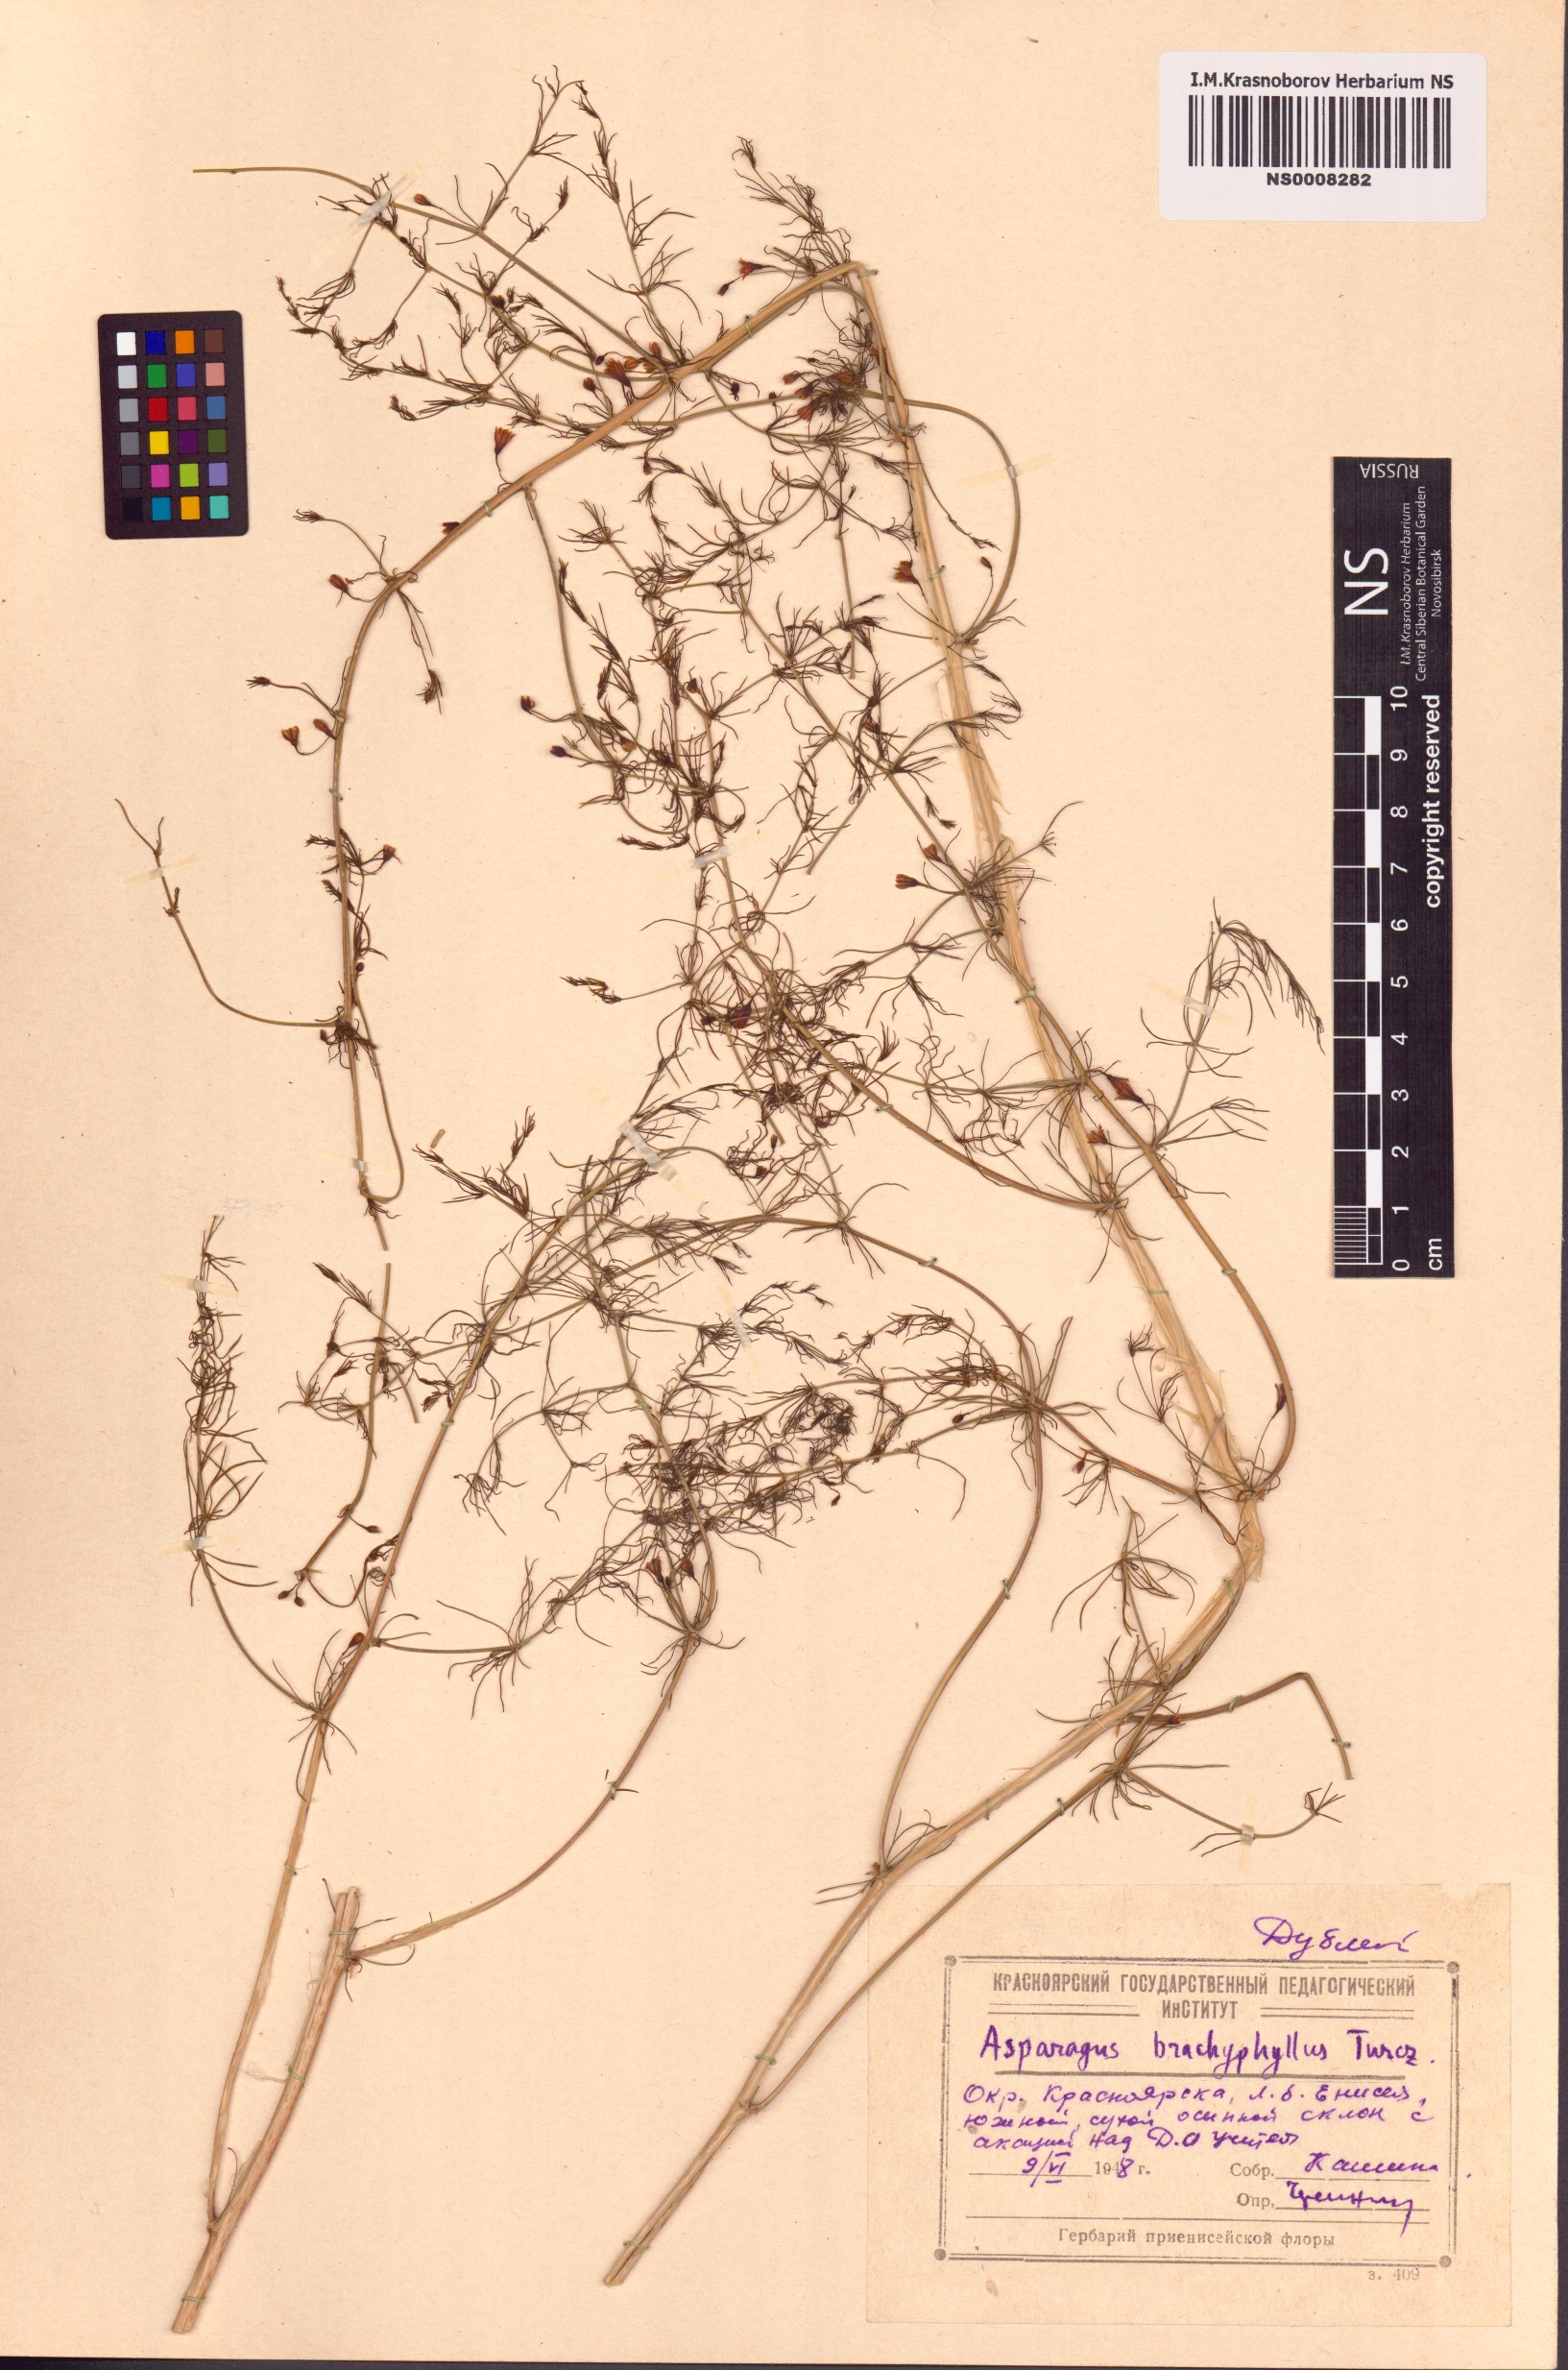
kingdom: Plantae
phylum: Tracheophyta
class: Liliopsida
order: Asparagales
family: Asparagaceae
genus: Asparagus
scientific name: Asparagus brachyphyllus
